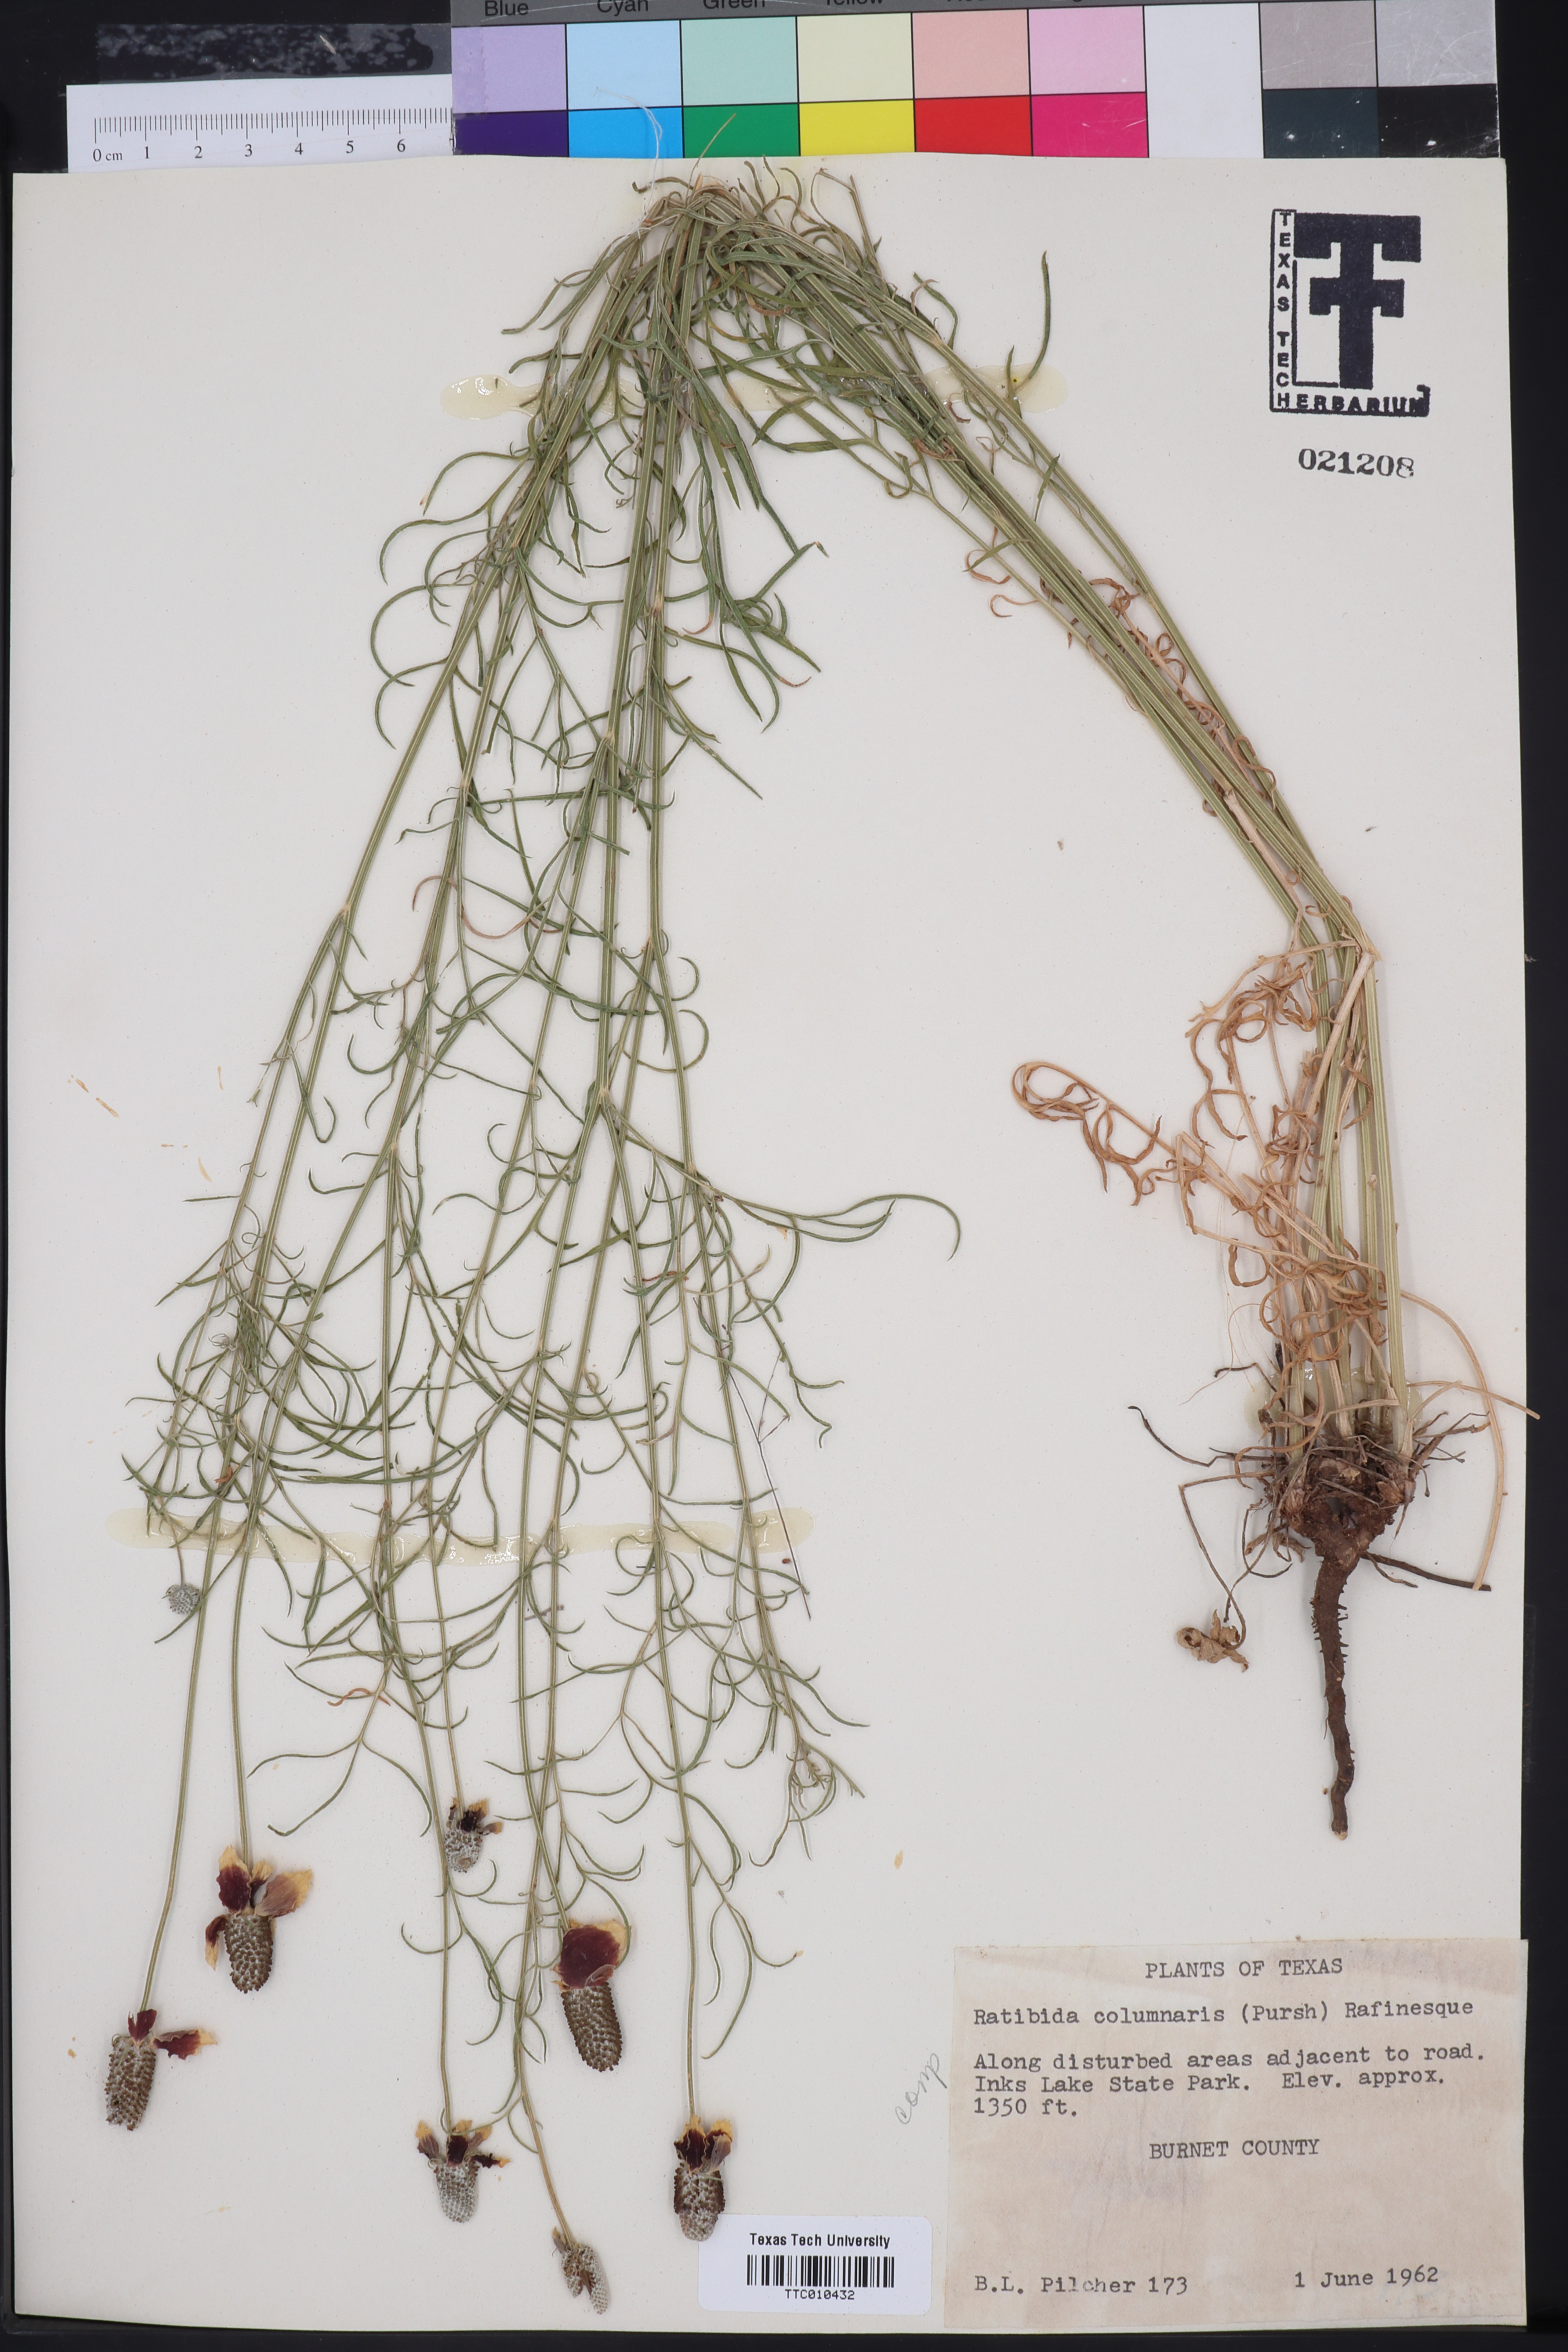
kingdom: Plantae
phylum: Tracheophyta
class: Magnoliopsida
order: Asterales
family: Asteraceae
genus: Ratibida
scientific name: Ratibida columnifera
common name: Prairie coneflower
